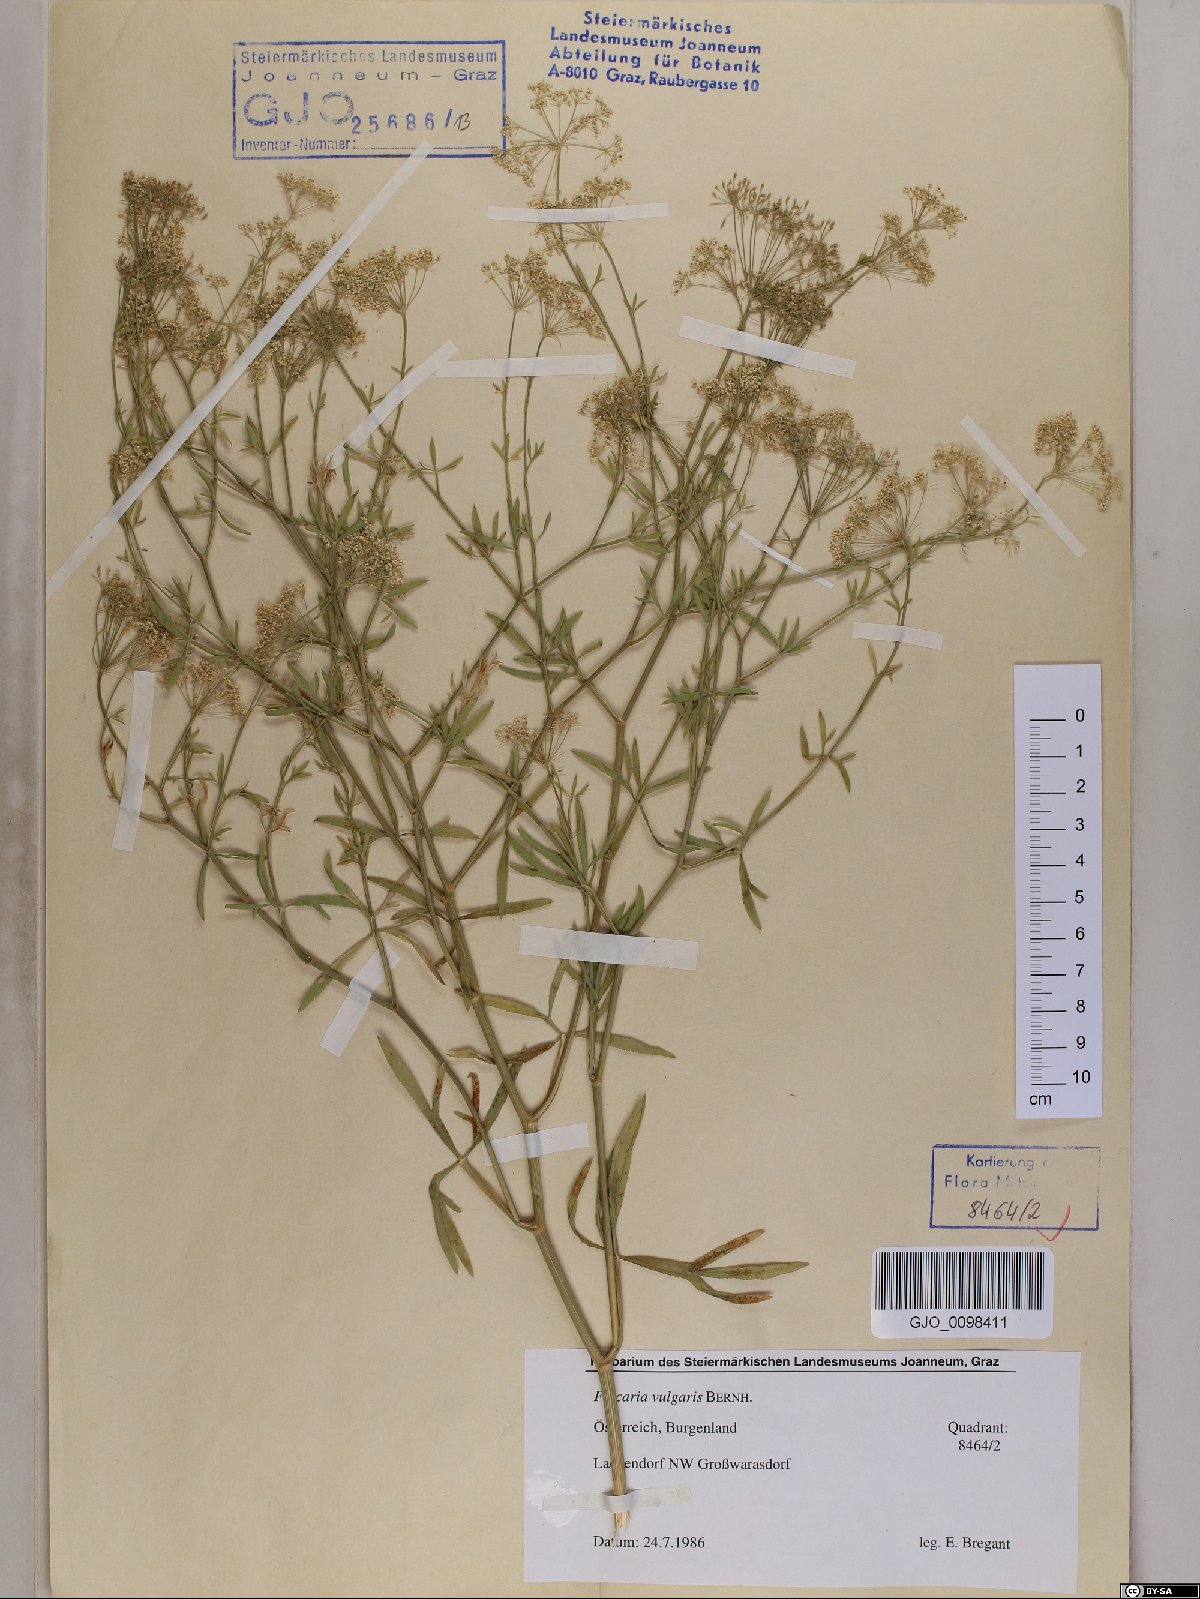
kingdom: Plantae
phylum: Tracheophyta
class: Magnoliopsida
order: Apiales
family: Apiaceae
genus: Falcaria
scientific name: Falcaria vulgaris
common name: Longleaf
